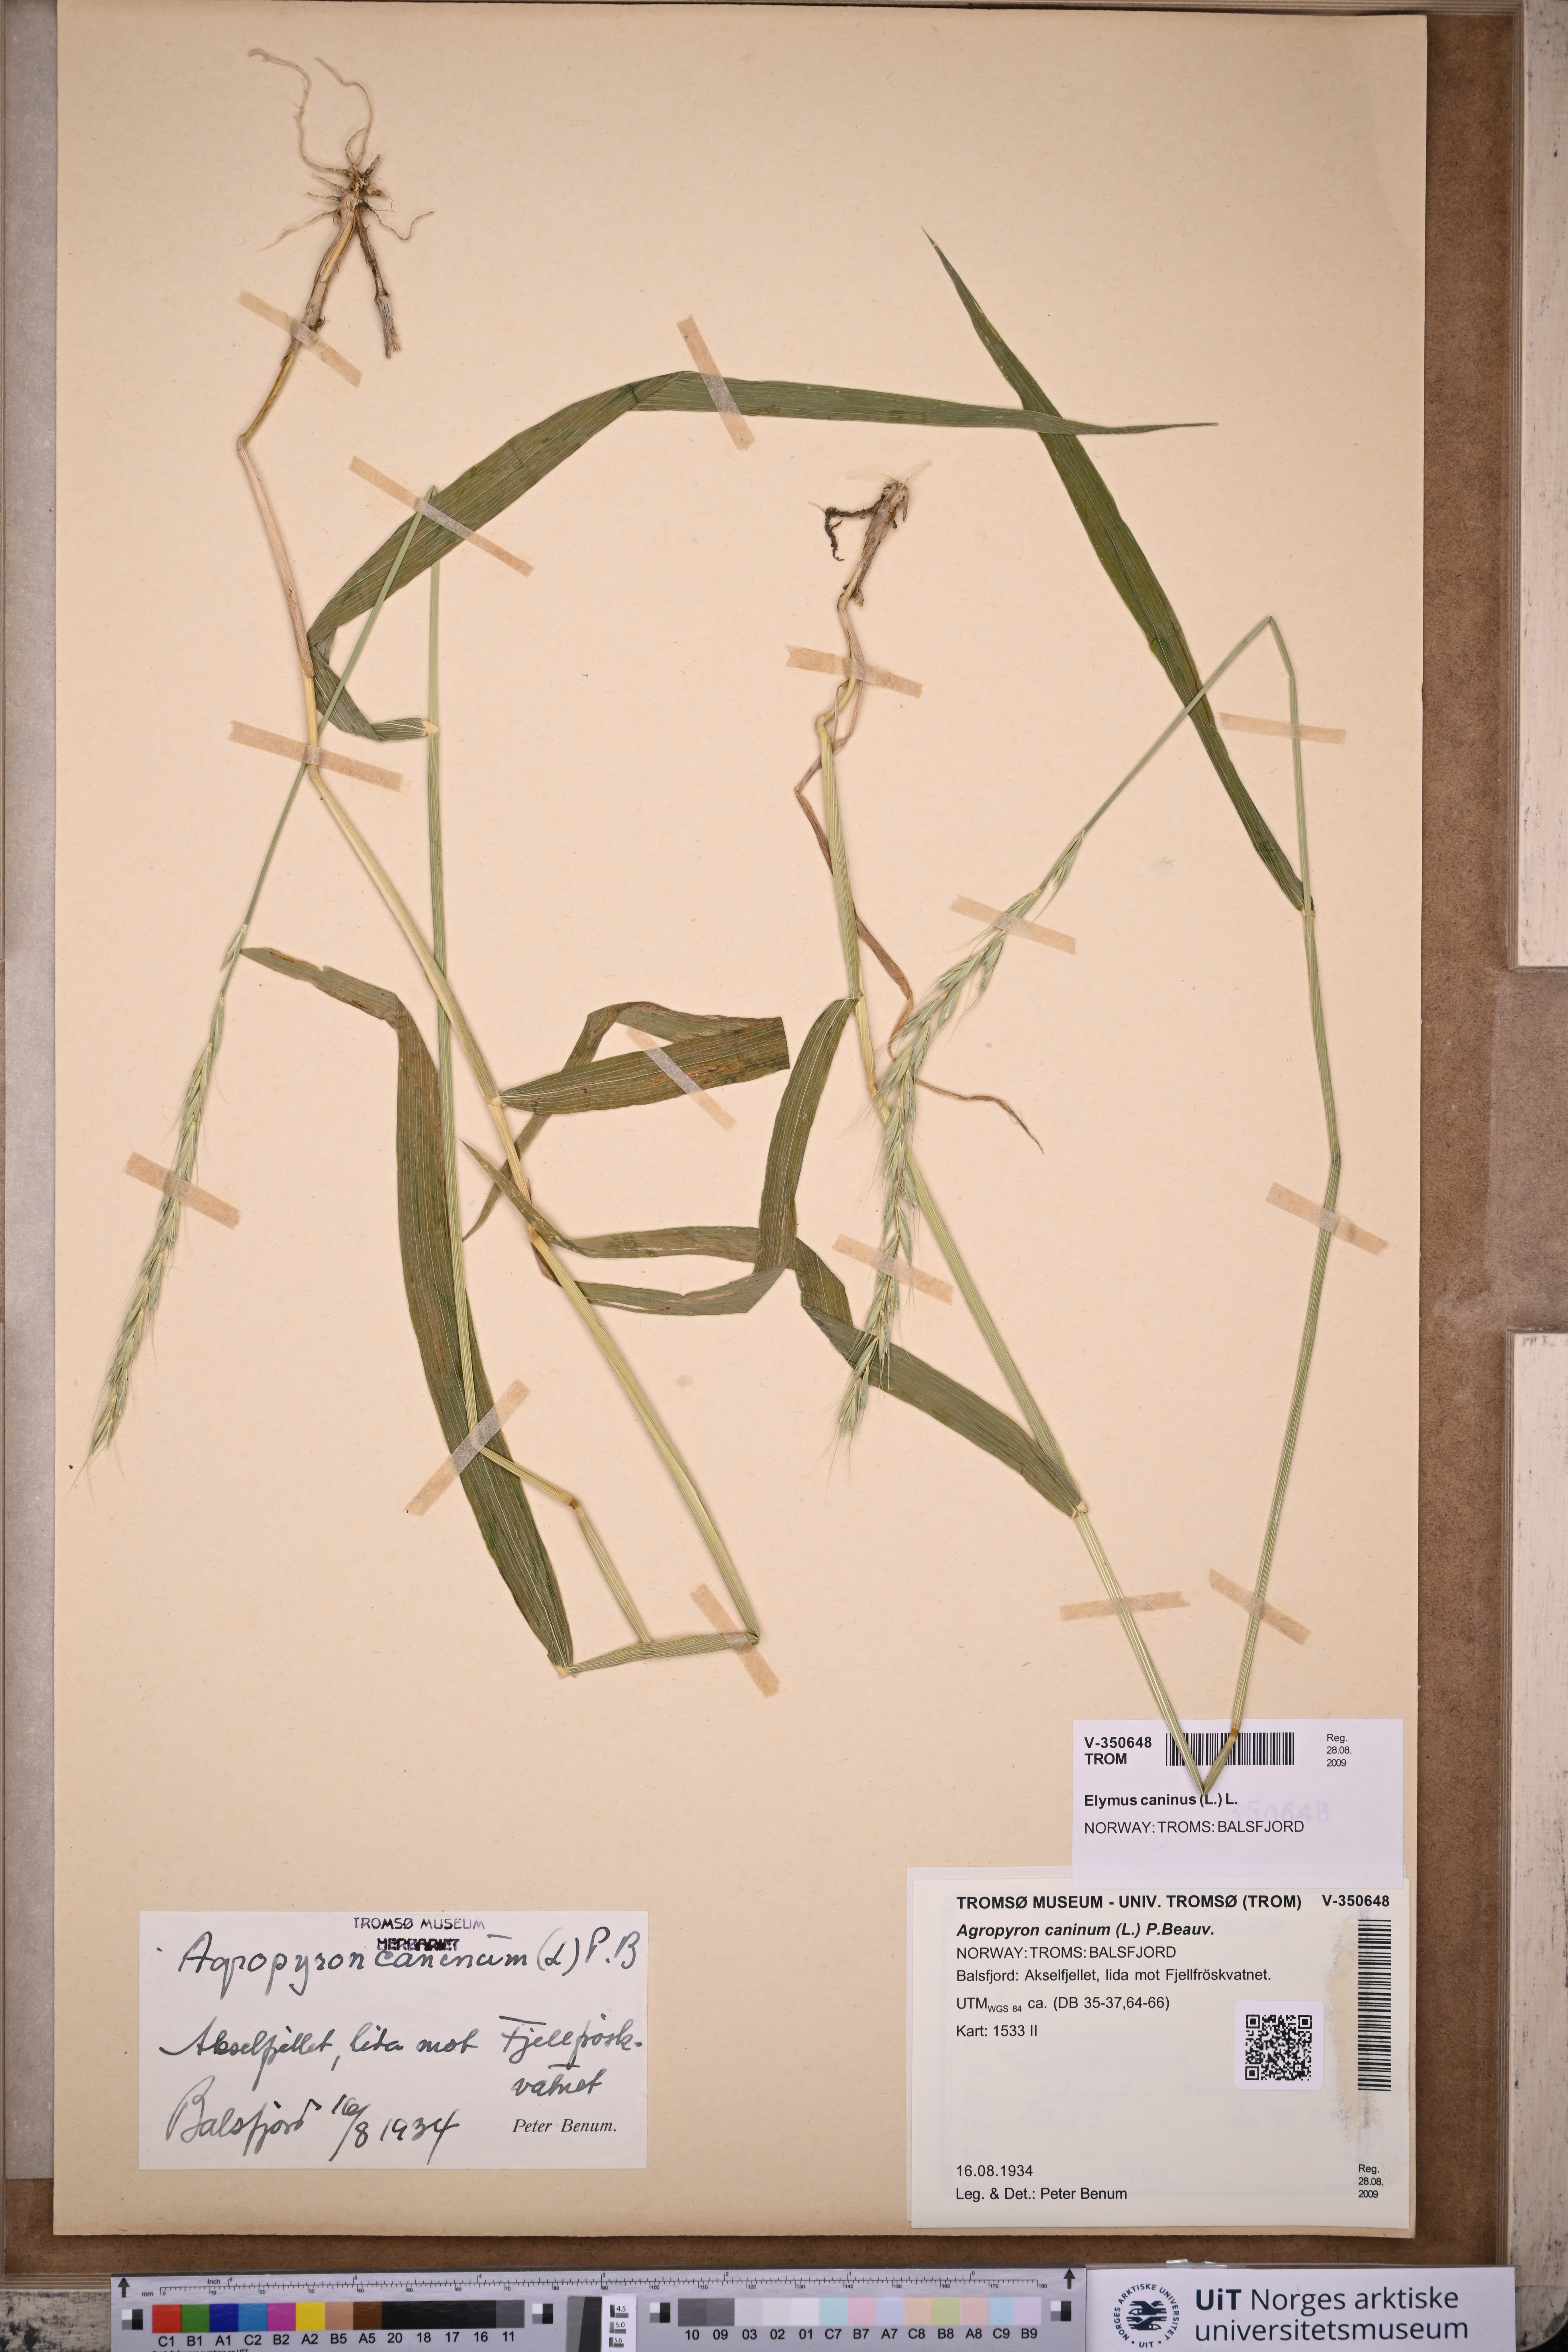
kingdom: Plantae
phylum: Tracheophyta
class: Liliopsida
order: Poales
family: Poaceae
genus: Elymus
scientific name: Elymus caninus
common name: Bearded couch
